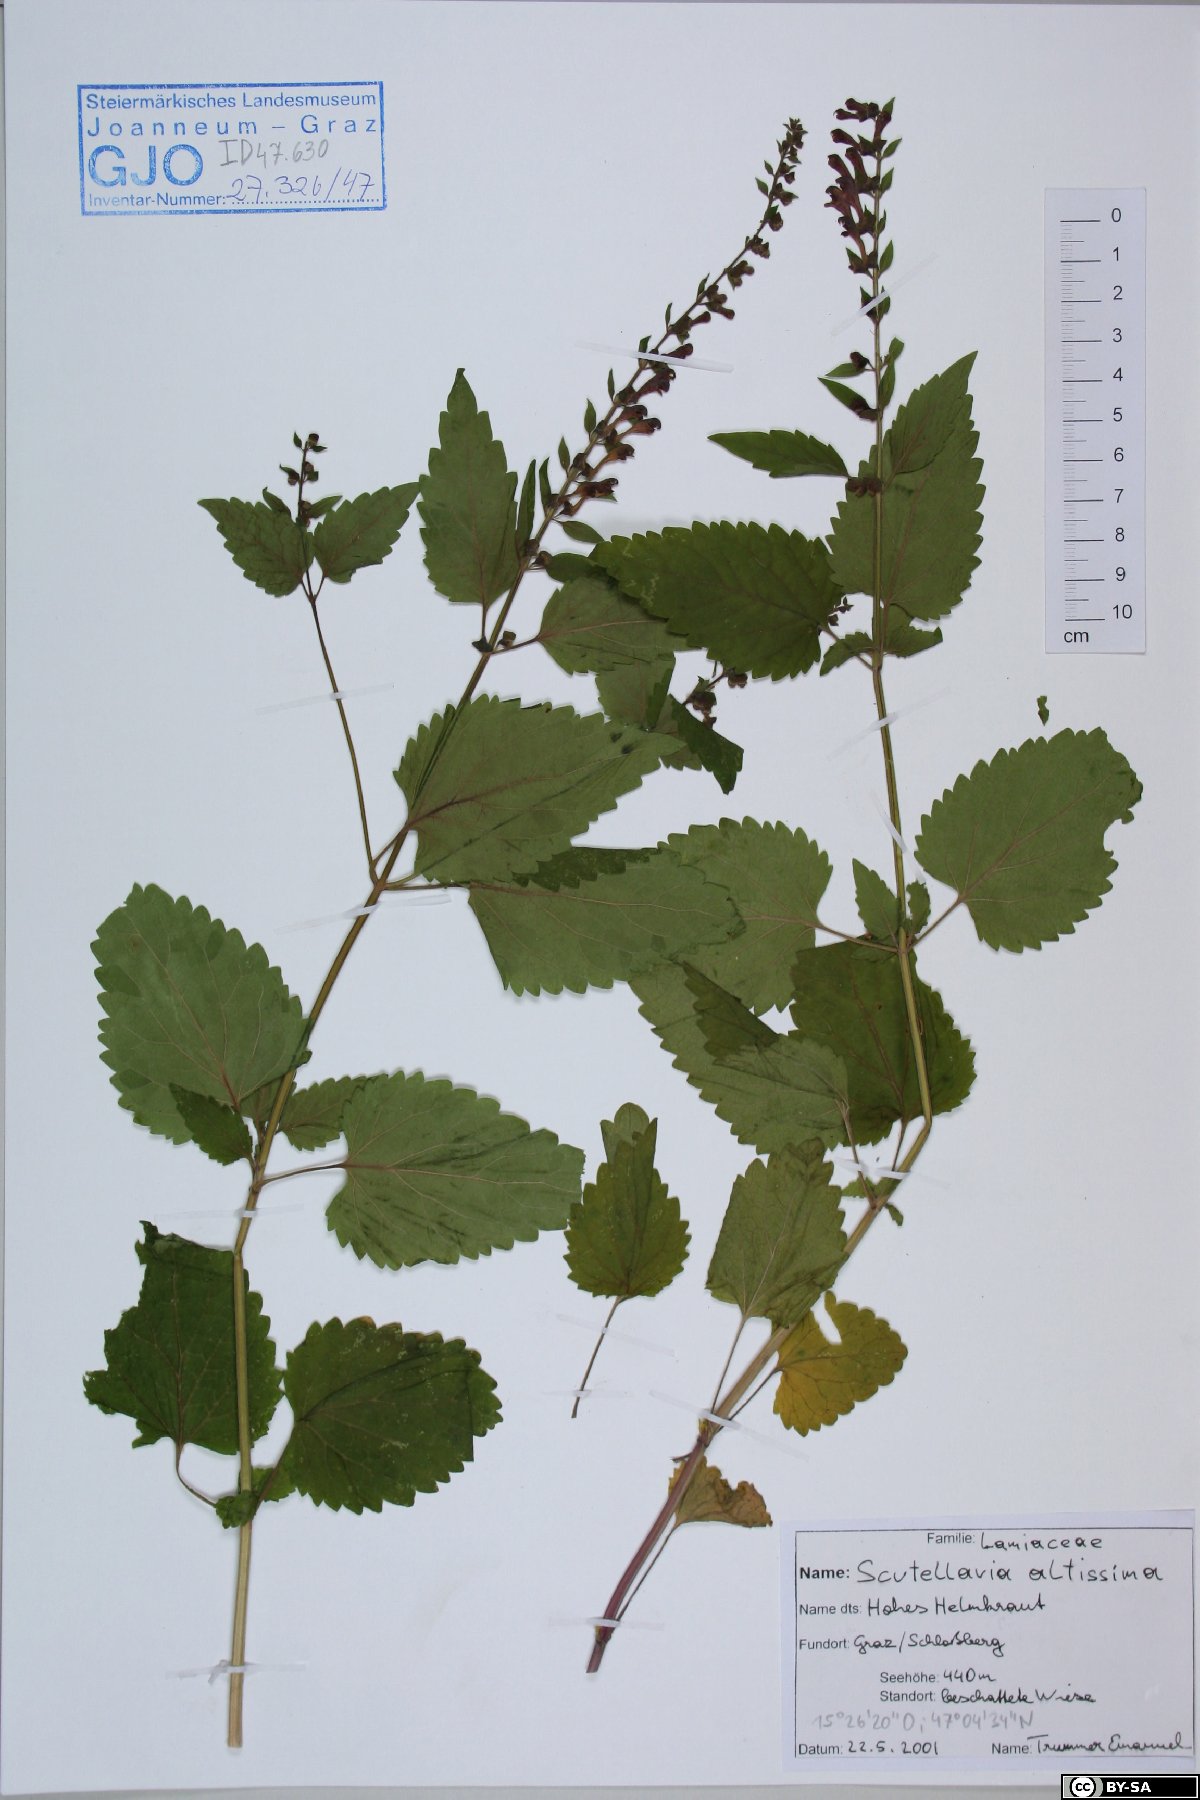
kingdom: Plantae
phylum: Tracheophyta
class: Magnoliopsida
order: Lamiales
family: Lamiaceae
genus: Scutellaria
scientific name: Scutellaria altissima
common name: Somerset skullcap
